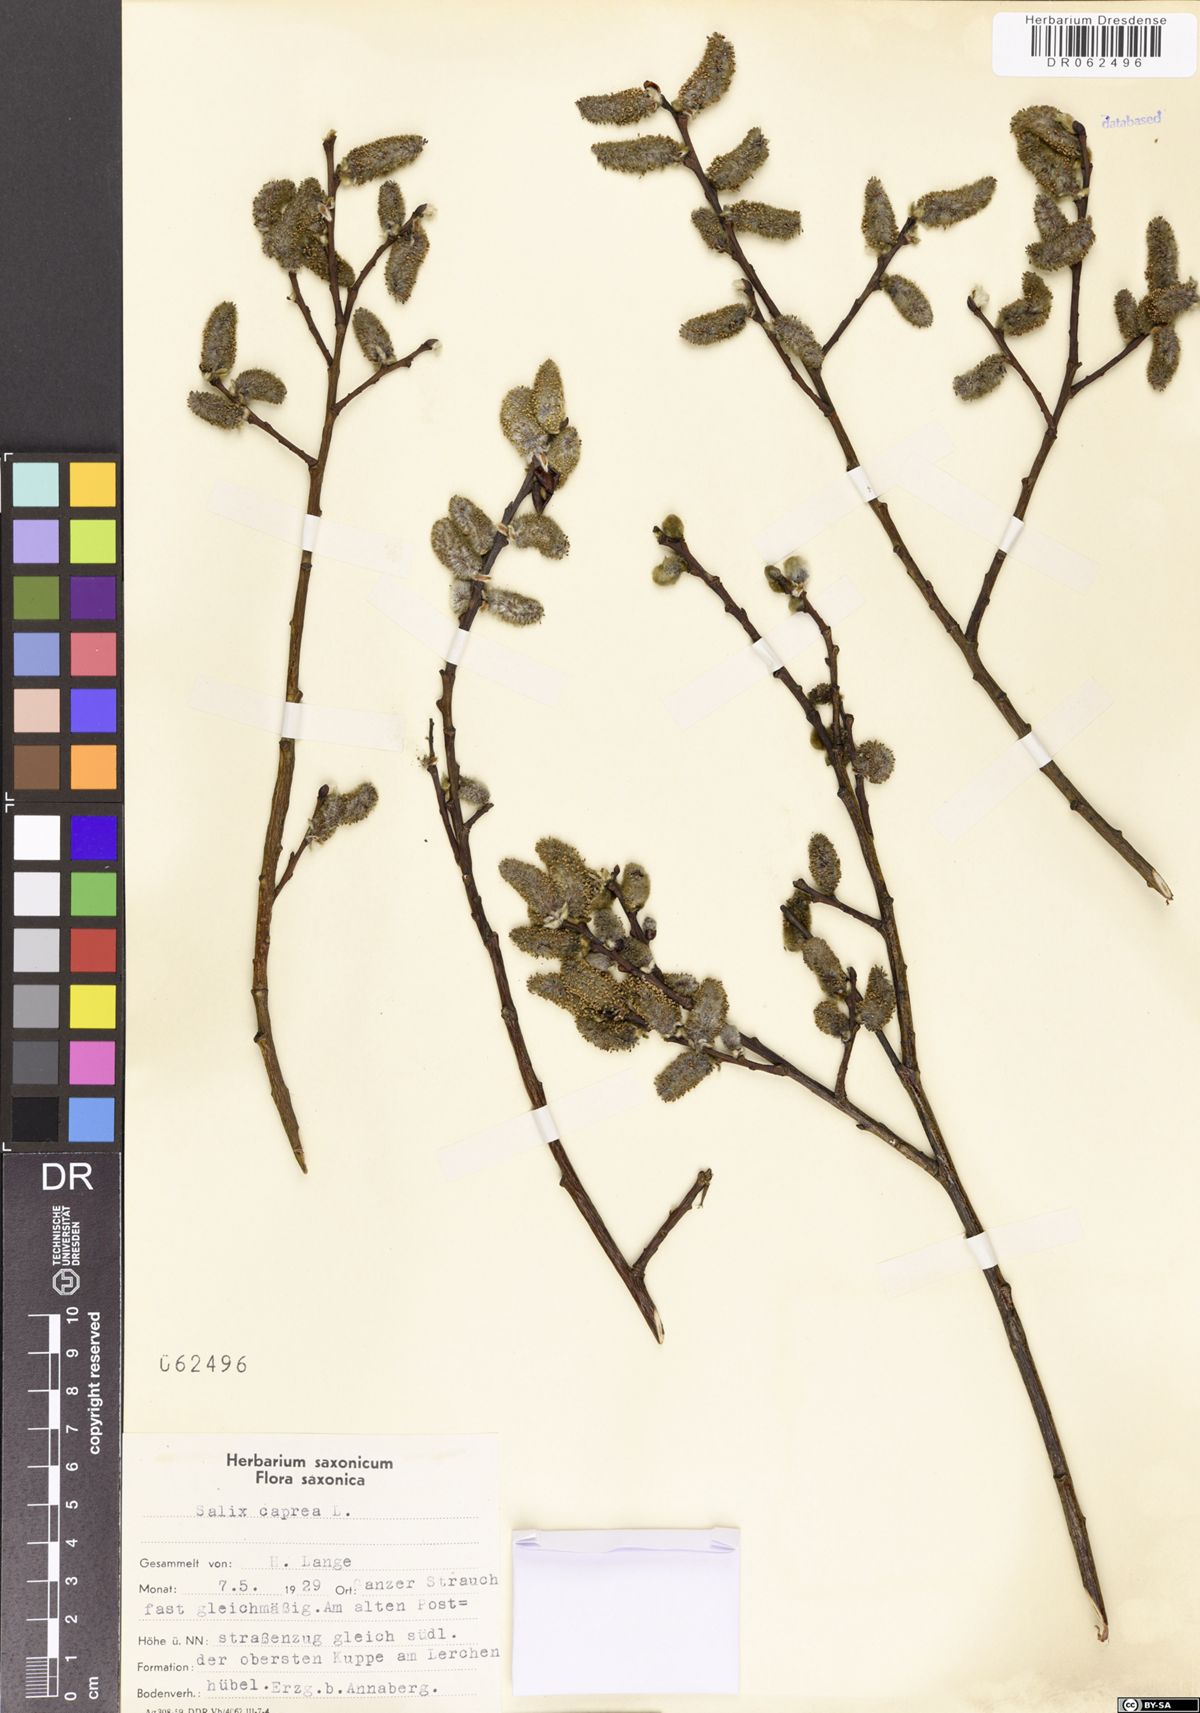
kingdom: Plantae
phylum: Tracheophyta
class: Magnoliopsida
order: Malpighiales
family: Salicaceae
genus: Salix
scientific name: Salix caprea
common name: Goat willow
